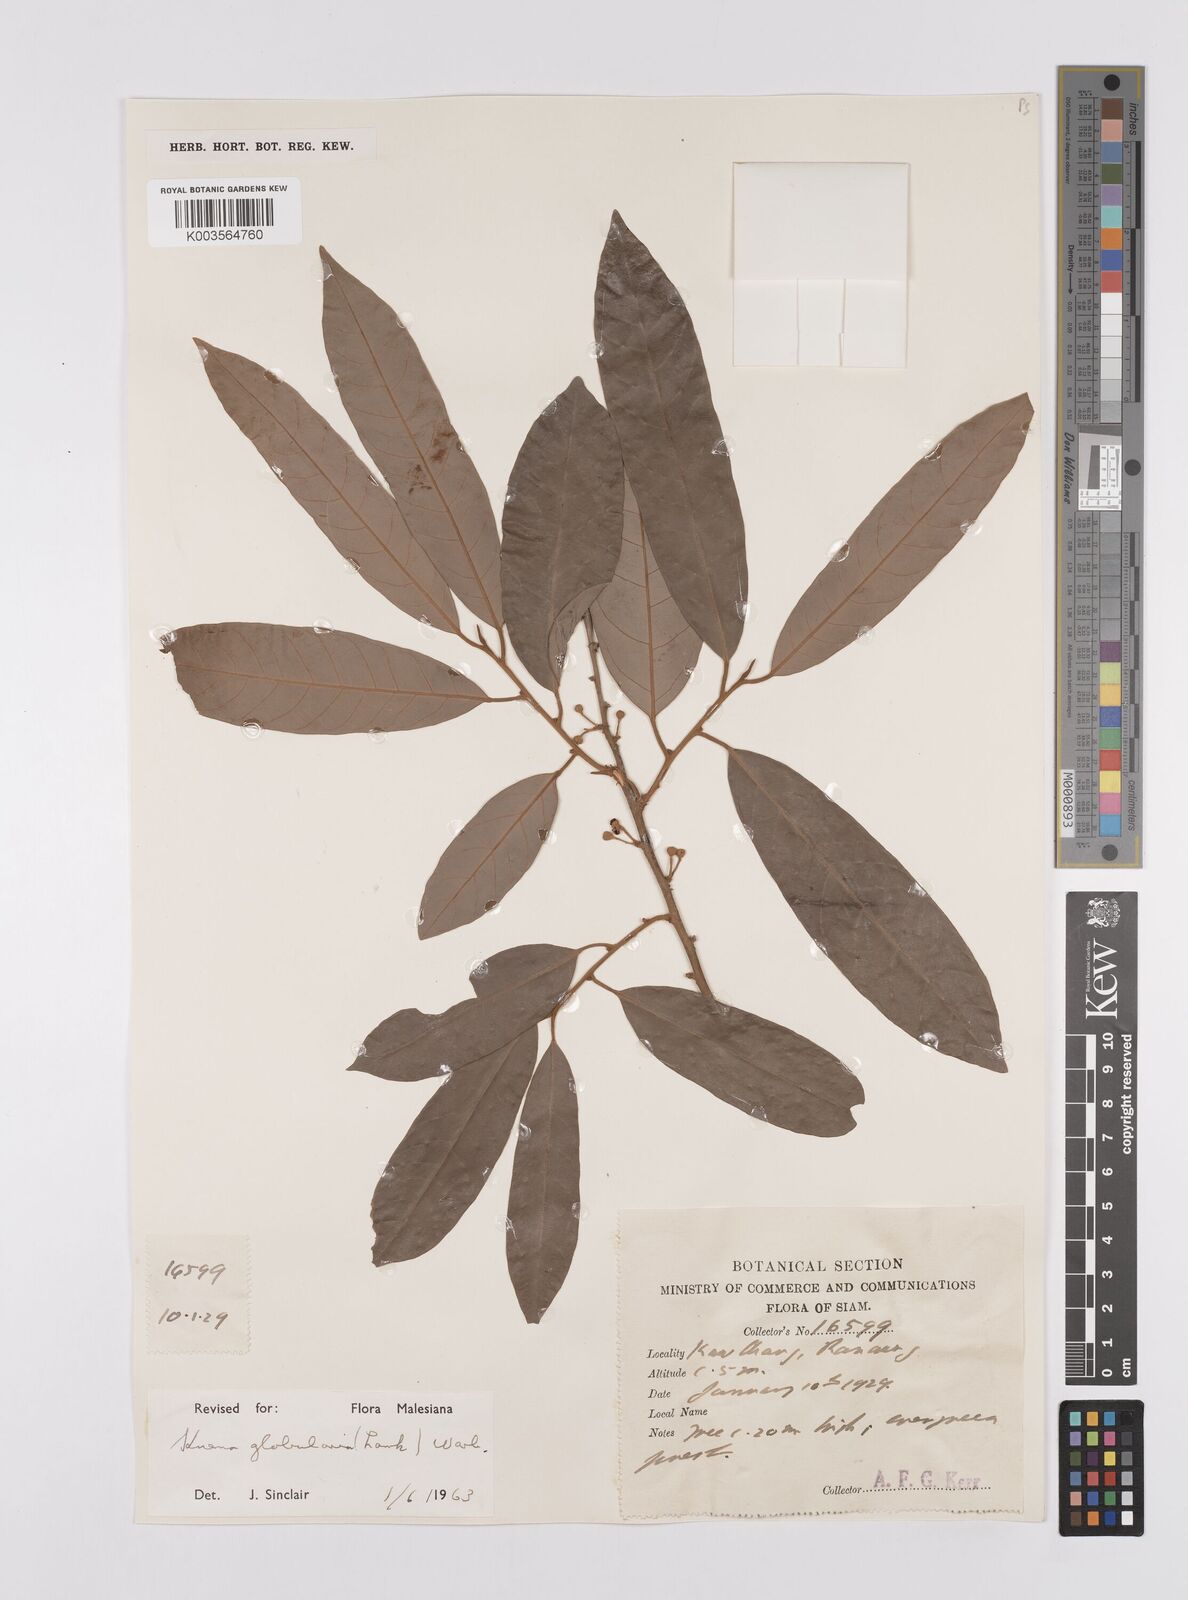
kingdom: Plantae
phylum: Tracheophyta
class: Magnoliopsida
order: Magnoliales
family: Myristicaceae
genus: Knema
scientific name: Knema globularia
